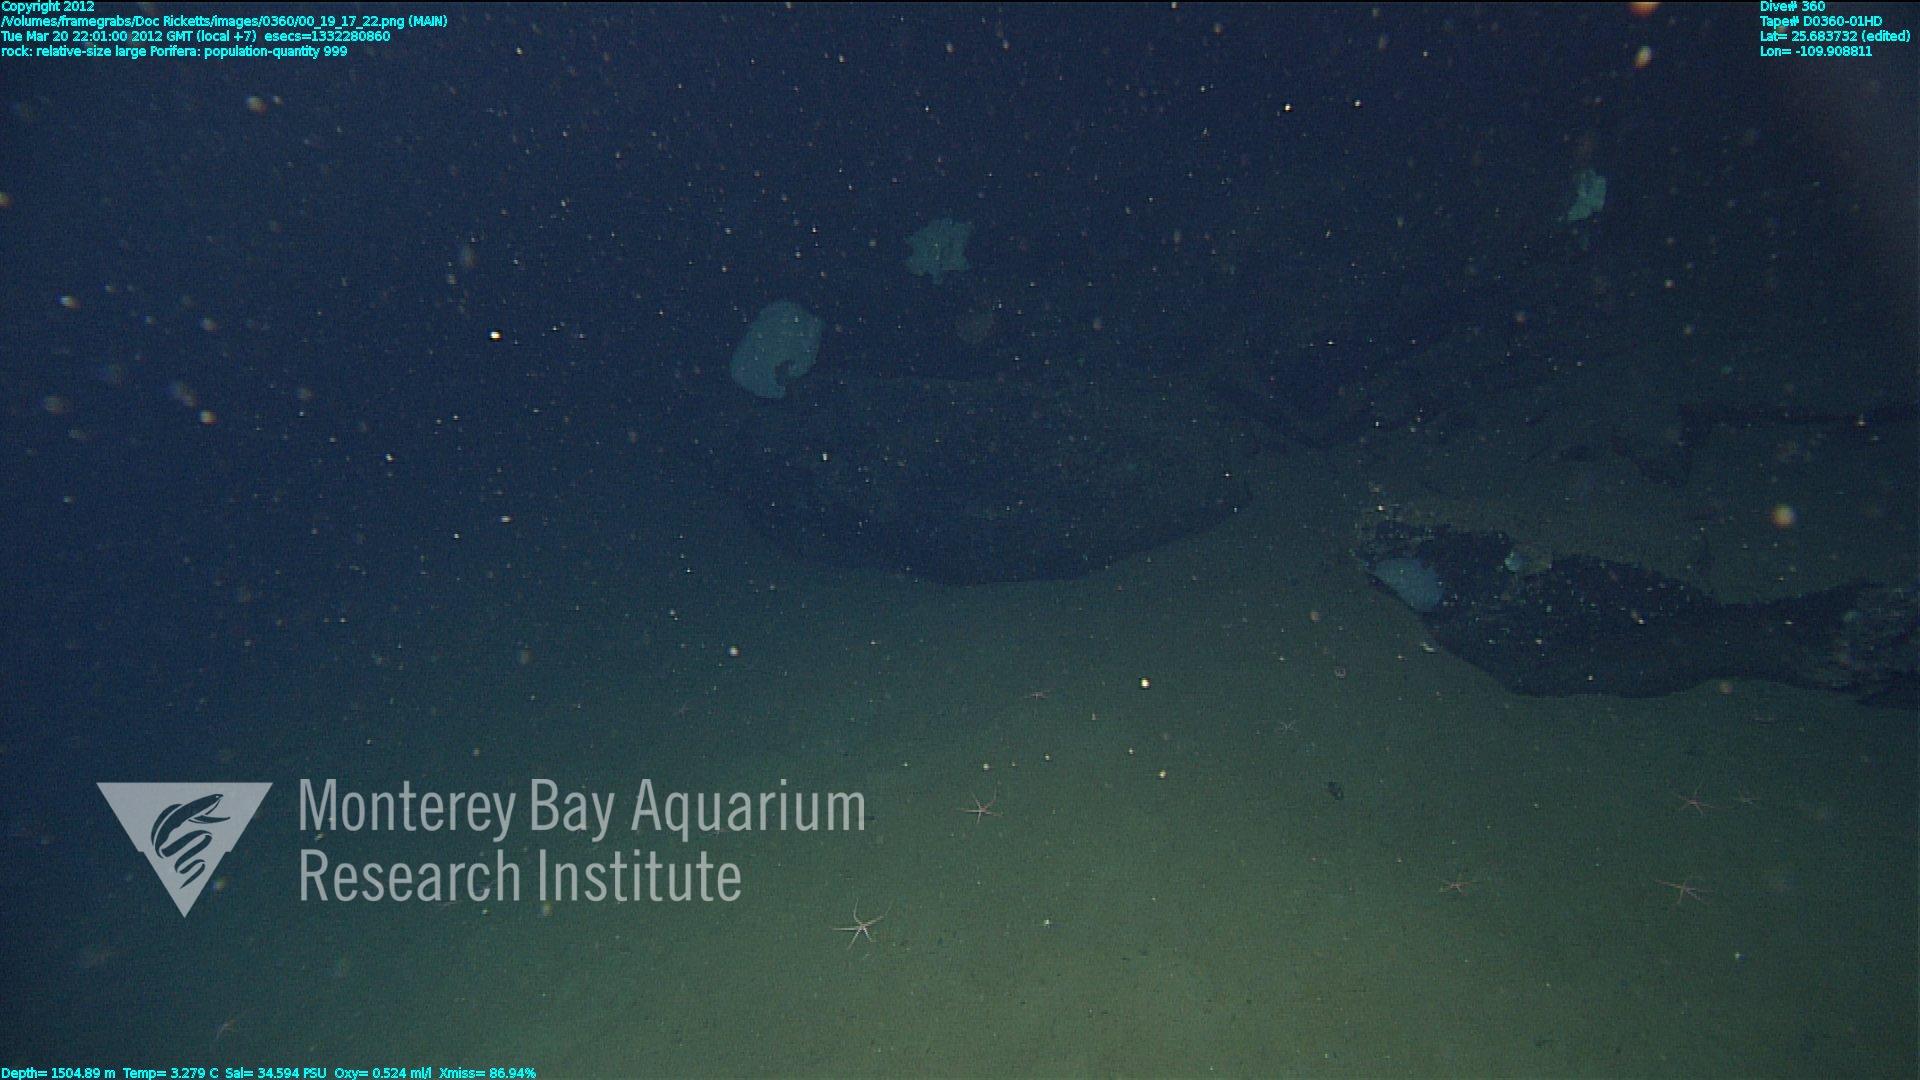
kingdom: Animalia
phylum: Porifera
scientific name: Porifera
